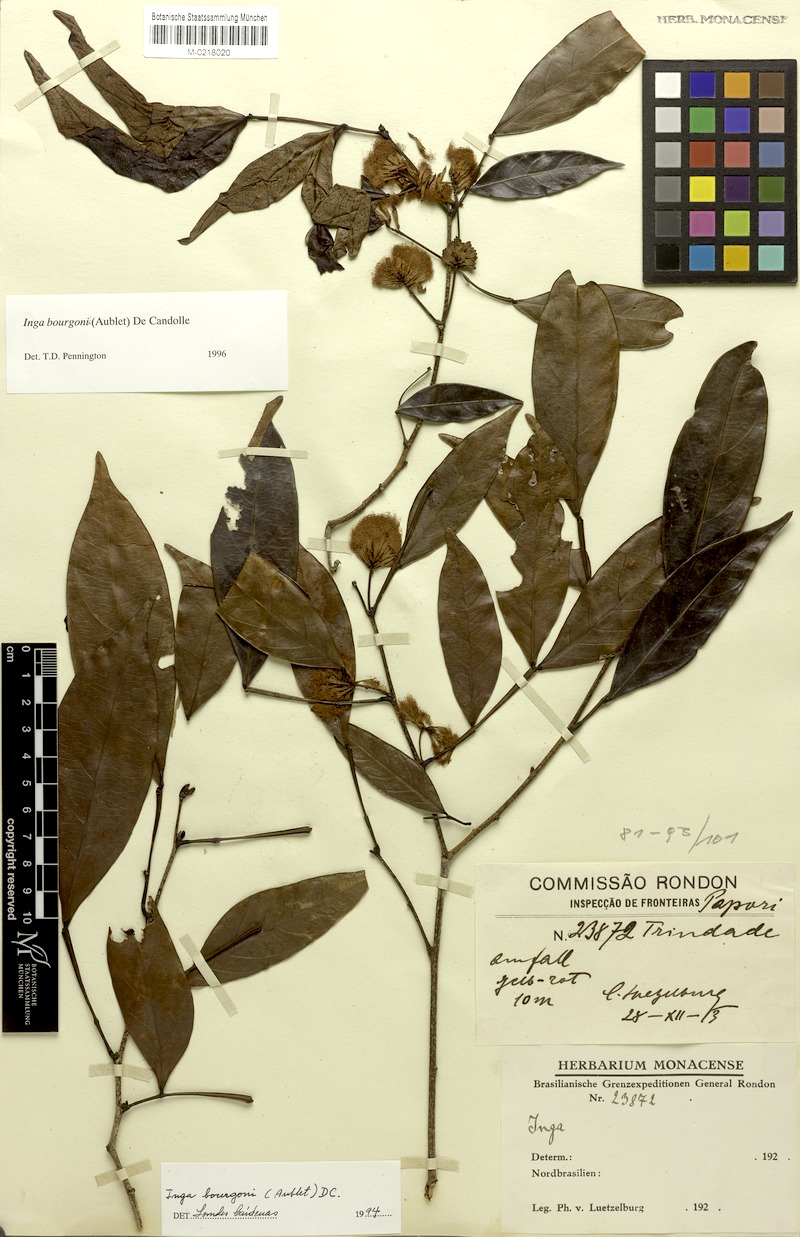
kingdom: Plantae
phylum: Tracheophyta
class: Magnoliopsida
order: Fabales
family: Fabaceae
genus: Inga
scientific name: Inga bourgoni
